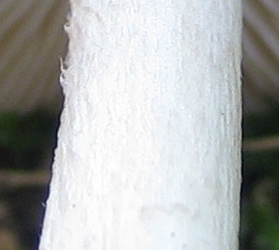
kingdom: Fungi
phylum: Basidiomycota
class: Agaricomycetes
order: Agaricales
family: Pluteaceae
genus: Pluteus
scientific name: Pluteus cervinus
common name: sodfarvet skærmhat
